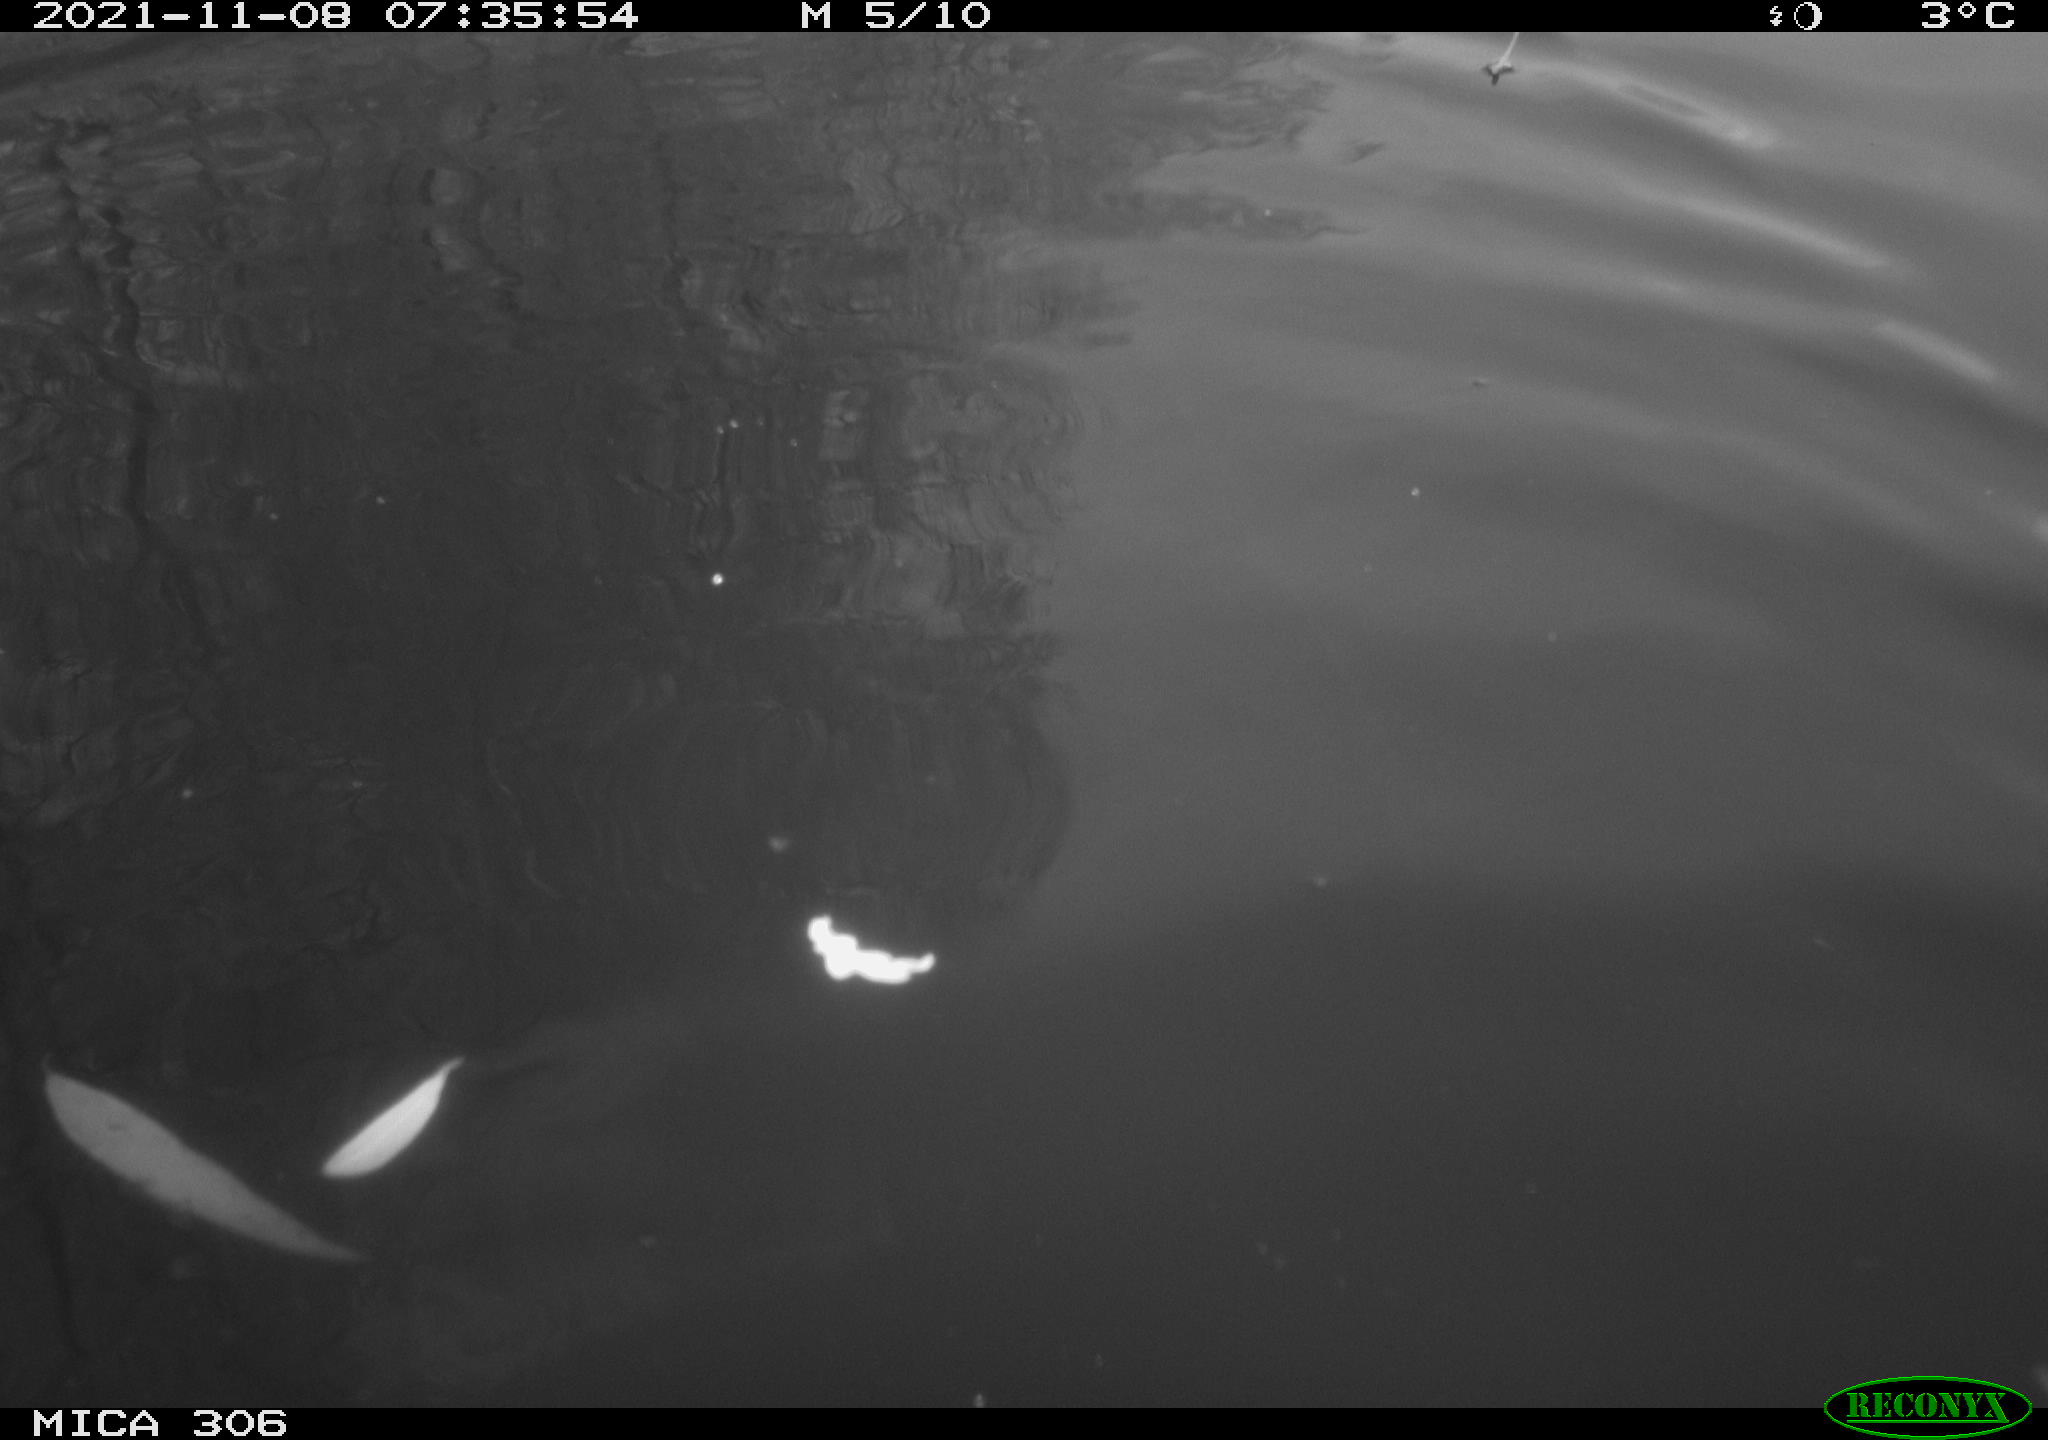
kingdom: Animalia
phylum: Chordata
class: Aves
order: Gruiformes
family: Rallidae
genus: Gallinula
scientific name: Gallinula chloropus
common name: Common moorhen
